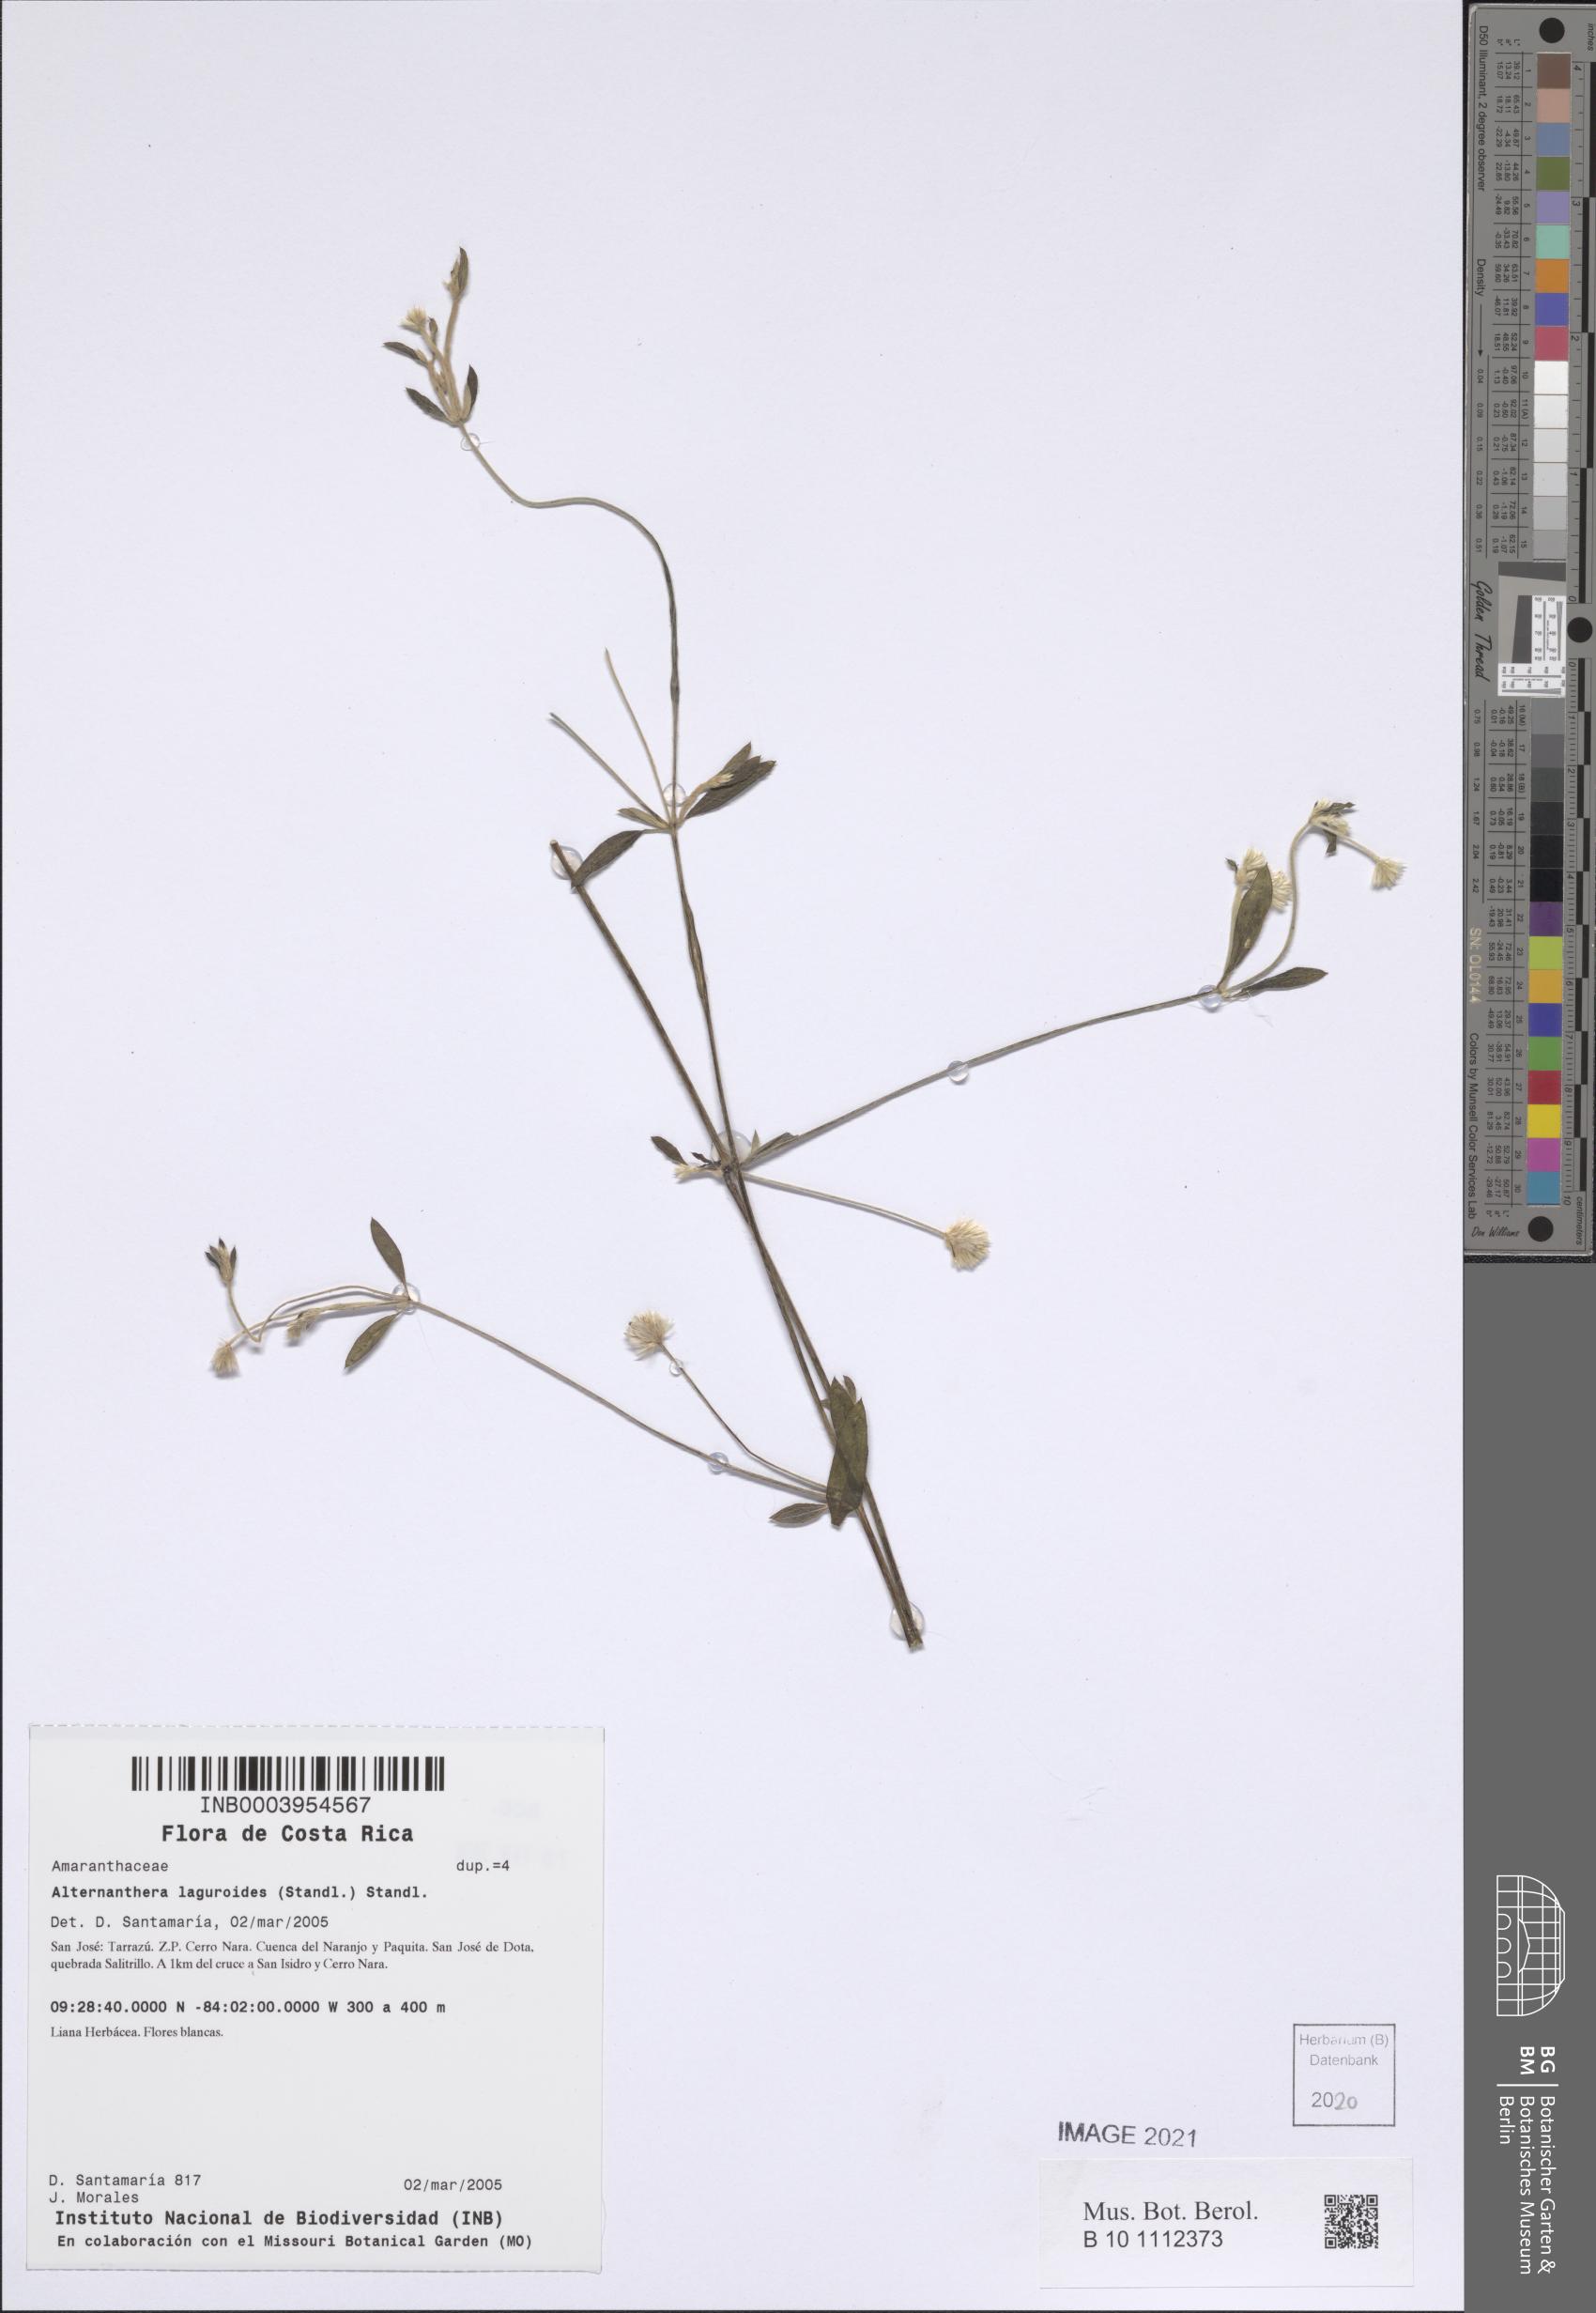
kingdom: Plantae
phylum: Tracheophyta
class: Magnoliopsida
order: Caryophyllales
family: Amaranthaceae
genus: Alternanthera
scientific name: Alternanthera laguroides
